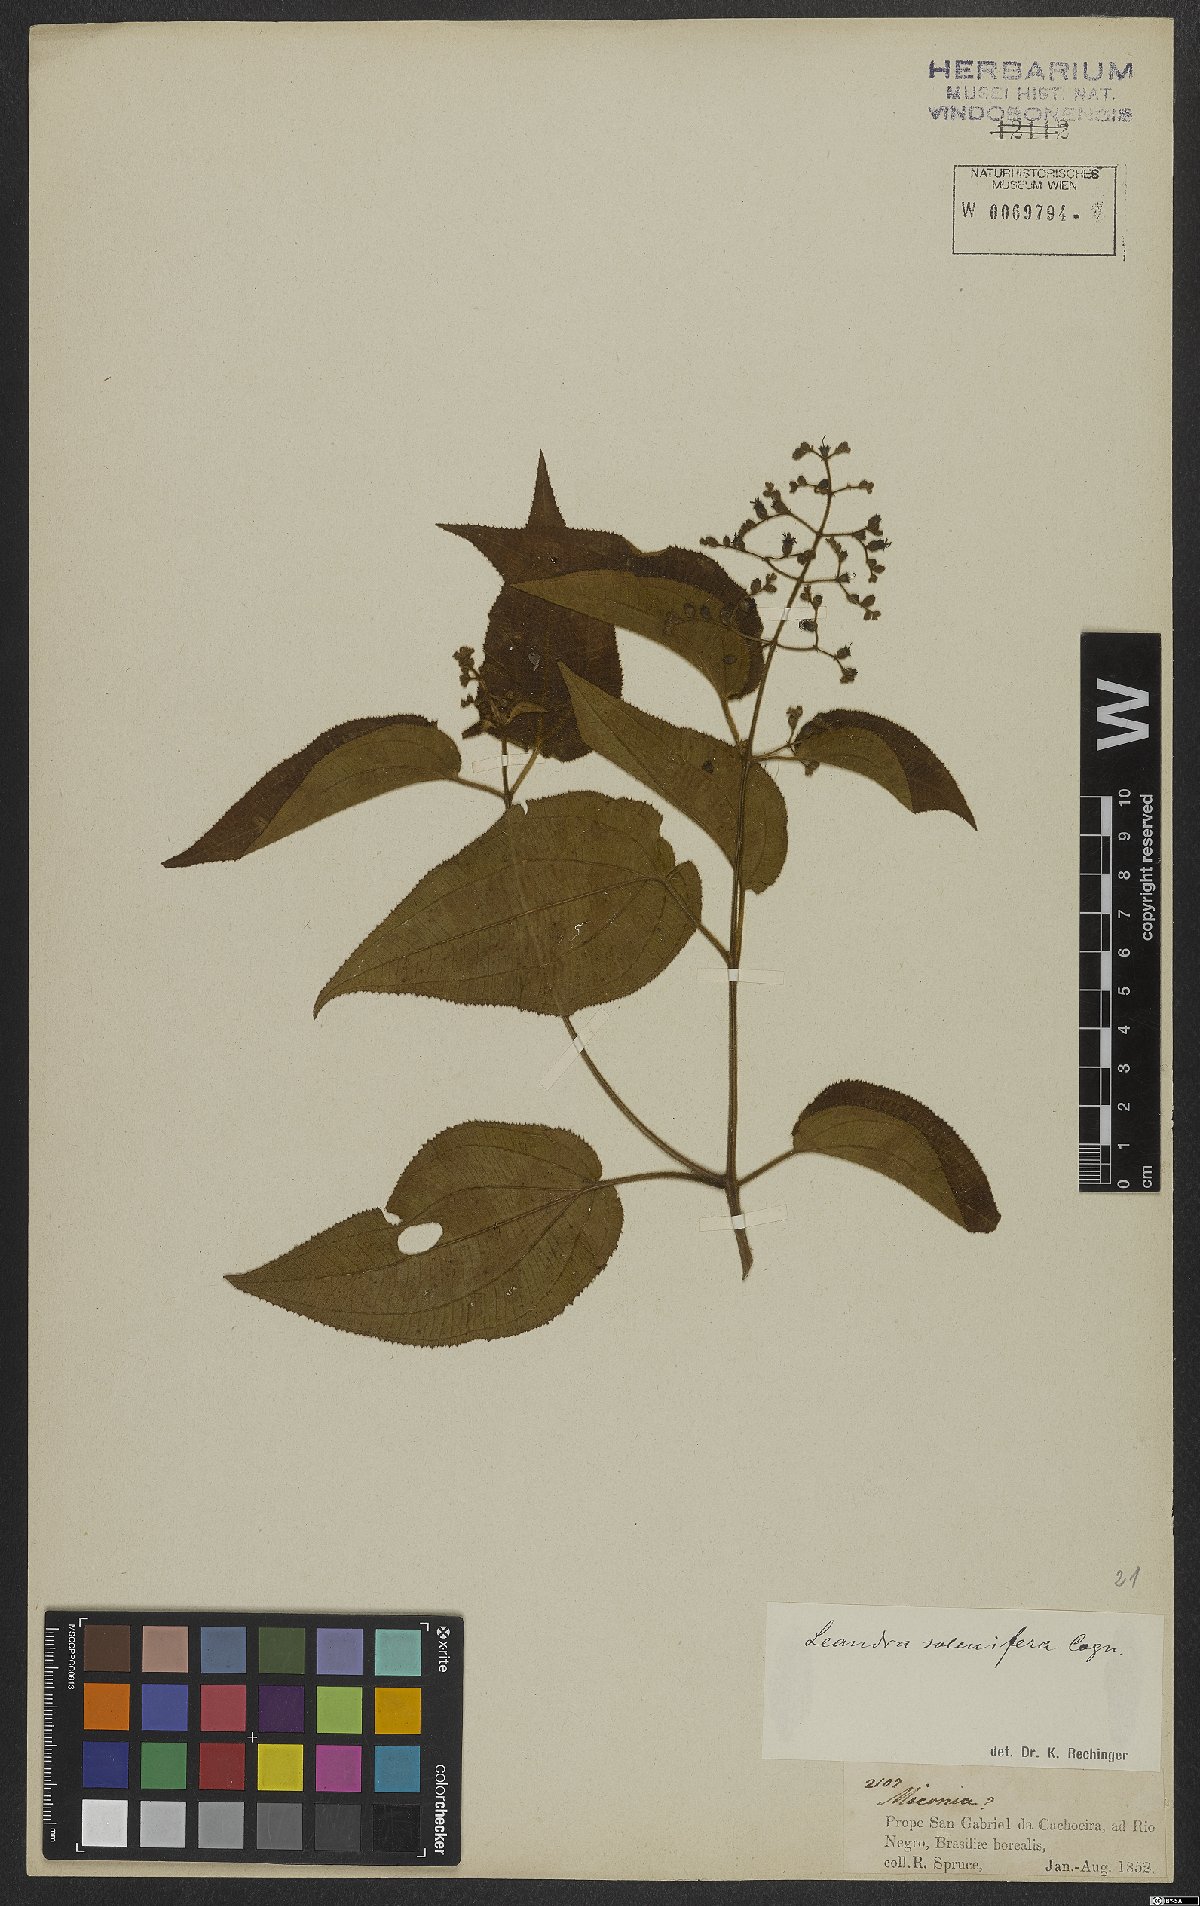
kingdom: Plantae
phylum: Tracheophyta
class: Magnoliopsida
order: Myrtales
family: Melastomataceae
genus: Miconia
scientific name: Miconia solenifera
